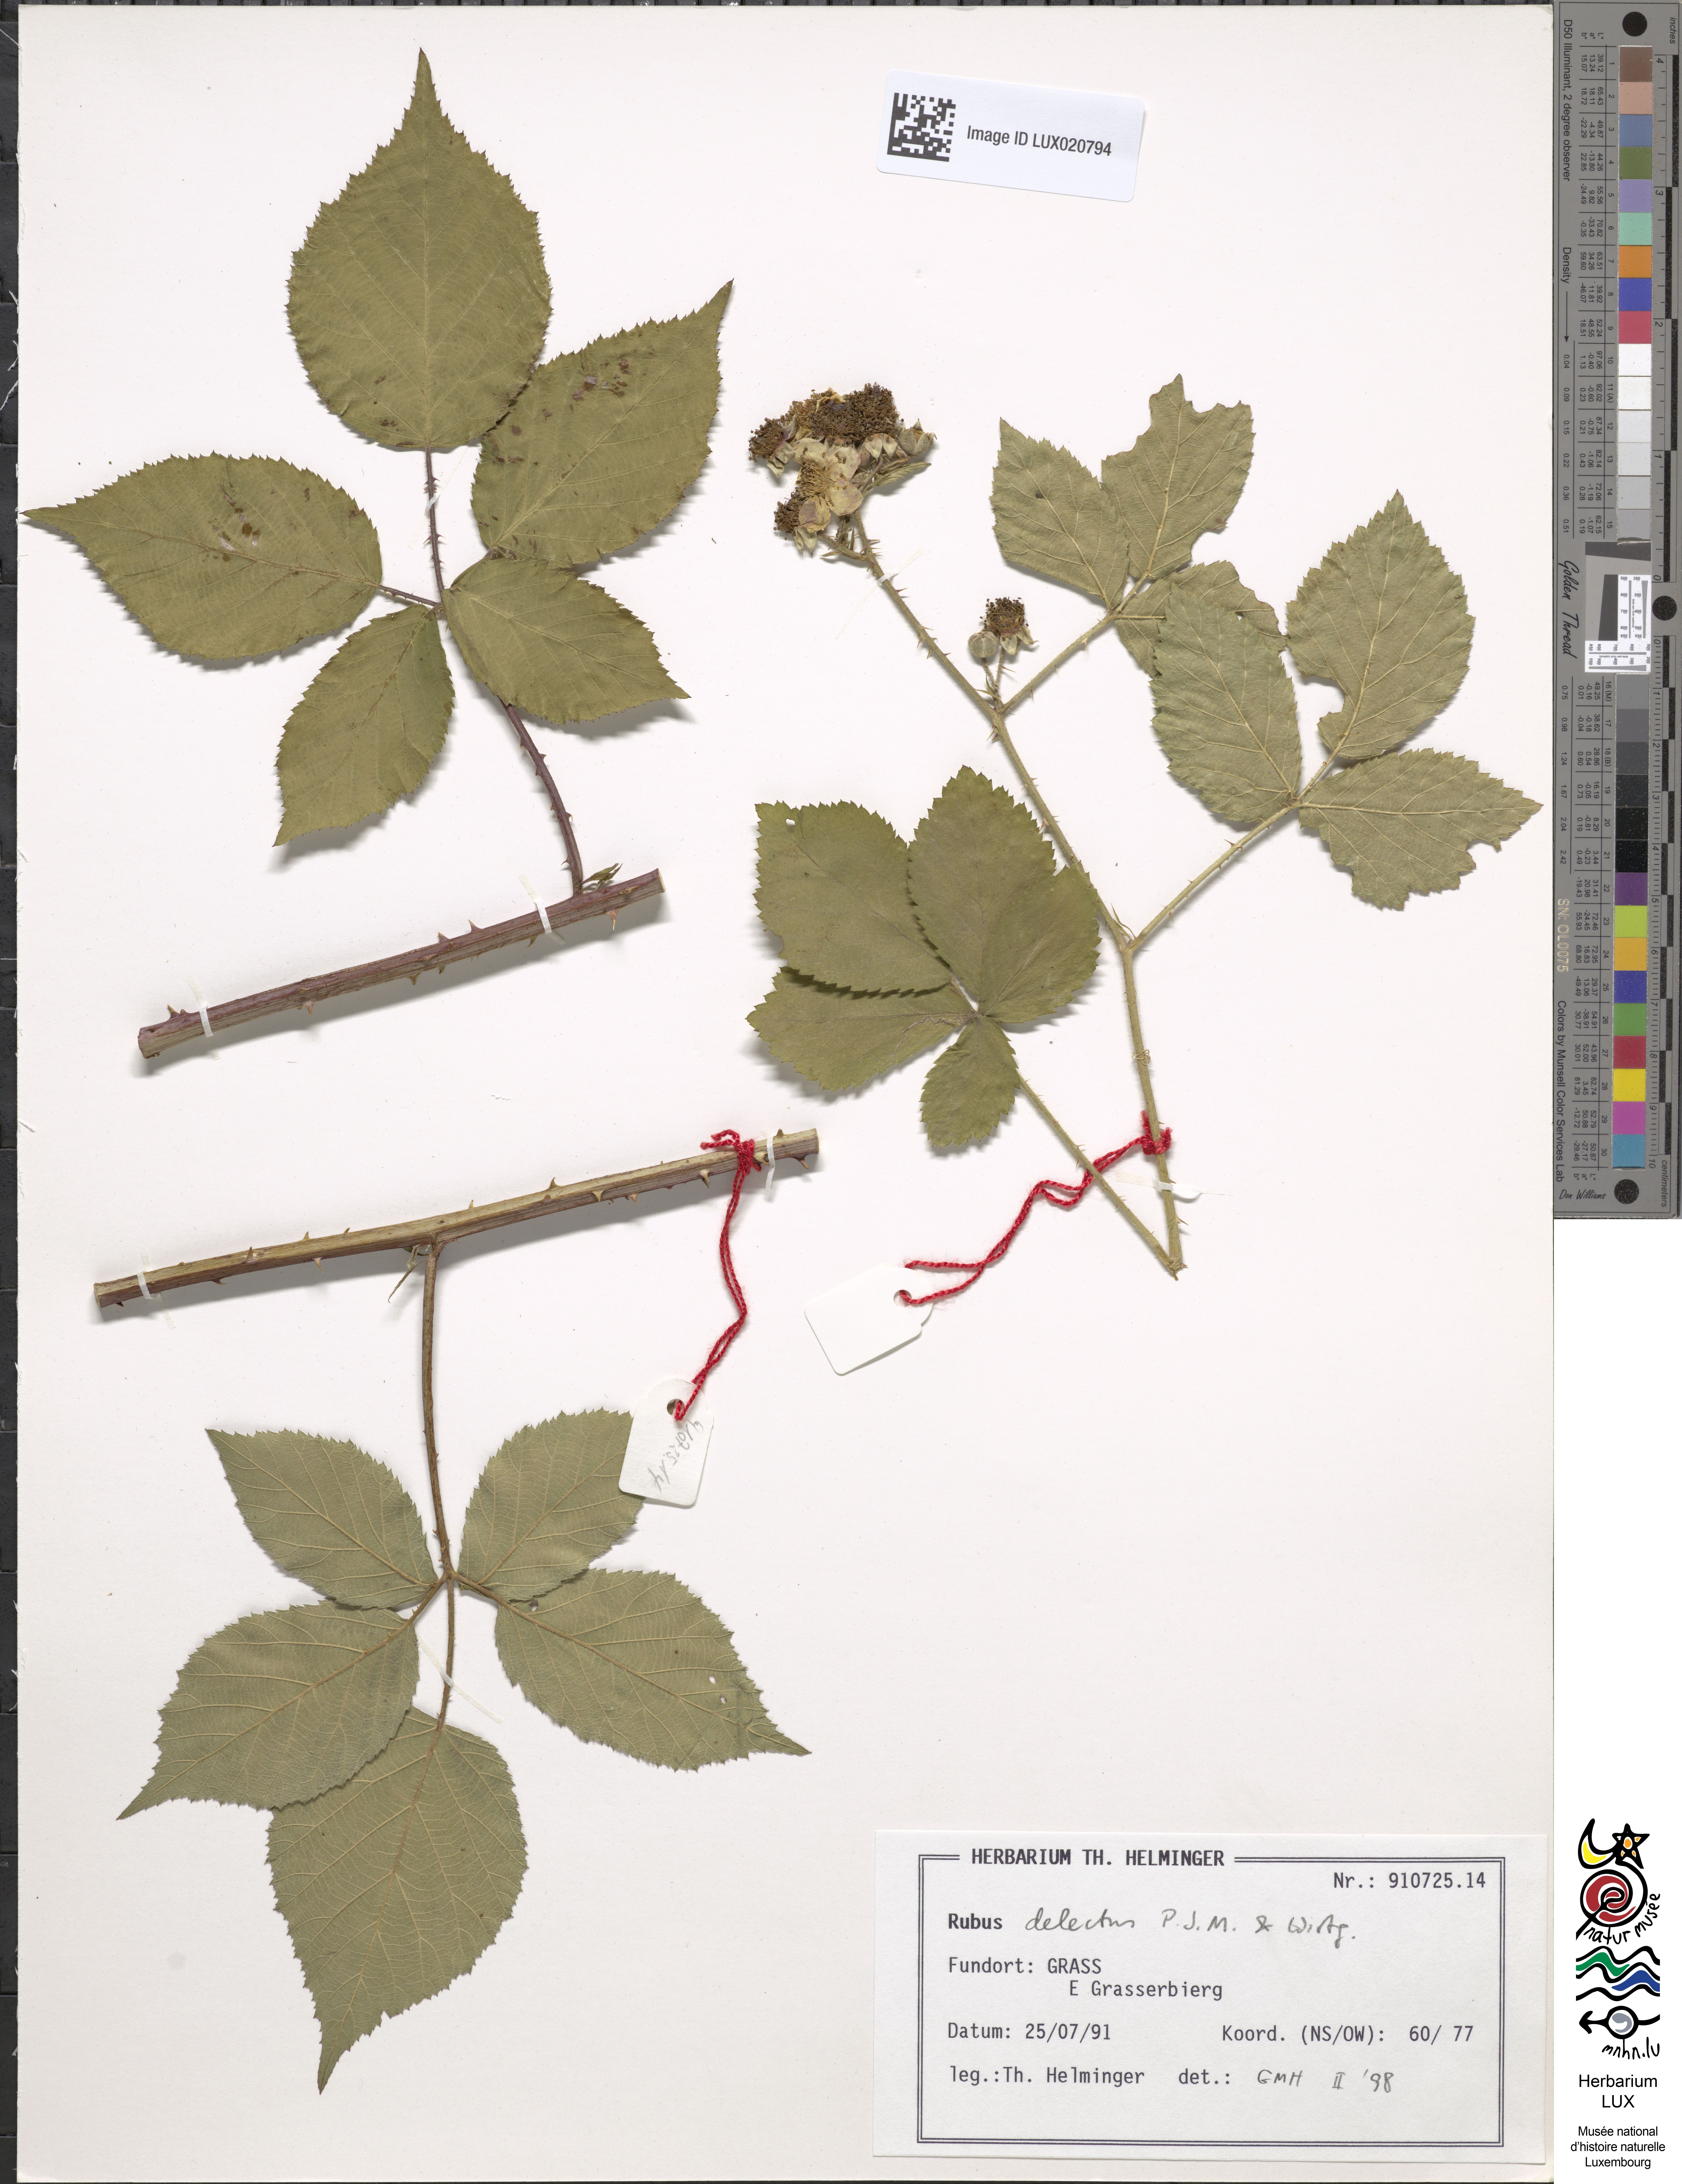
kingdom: Plantae
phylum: Tracheophyta
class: Magnoliopsida
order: Rosales
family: Rosaceae
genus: Rubus
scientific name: Rubus delectus
